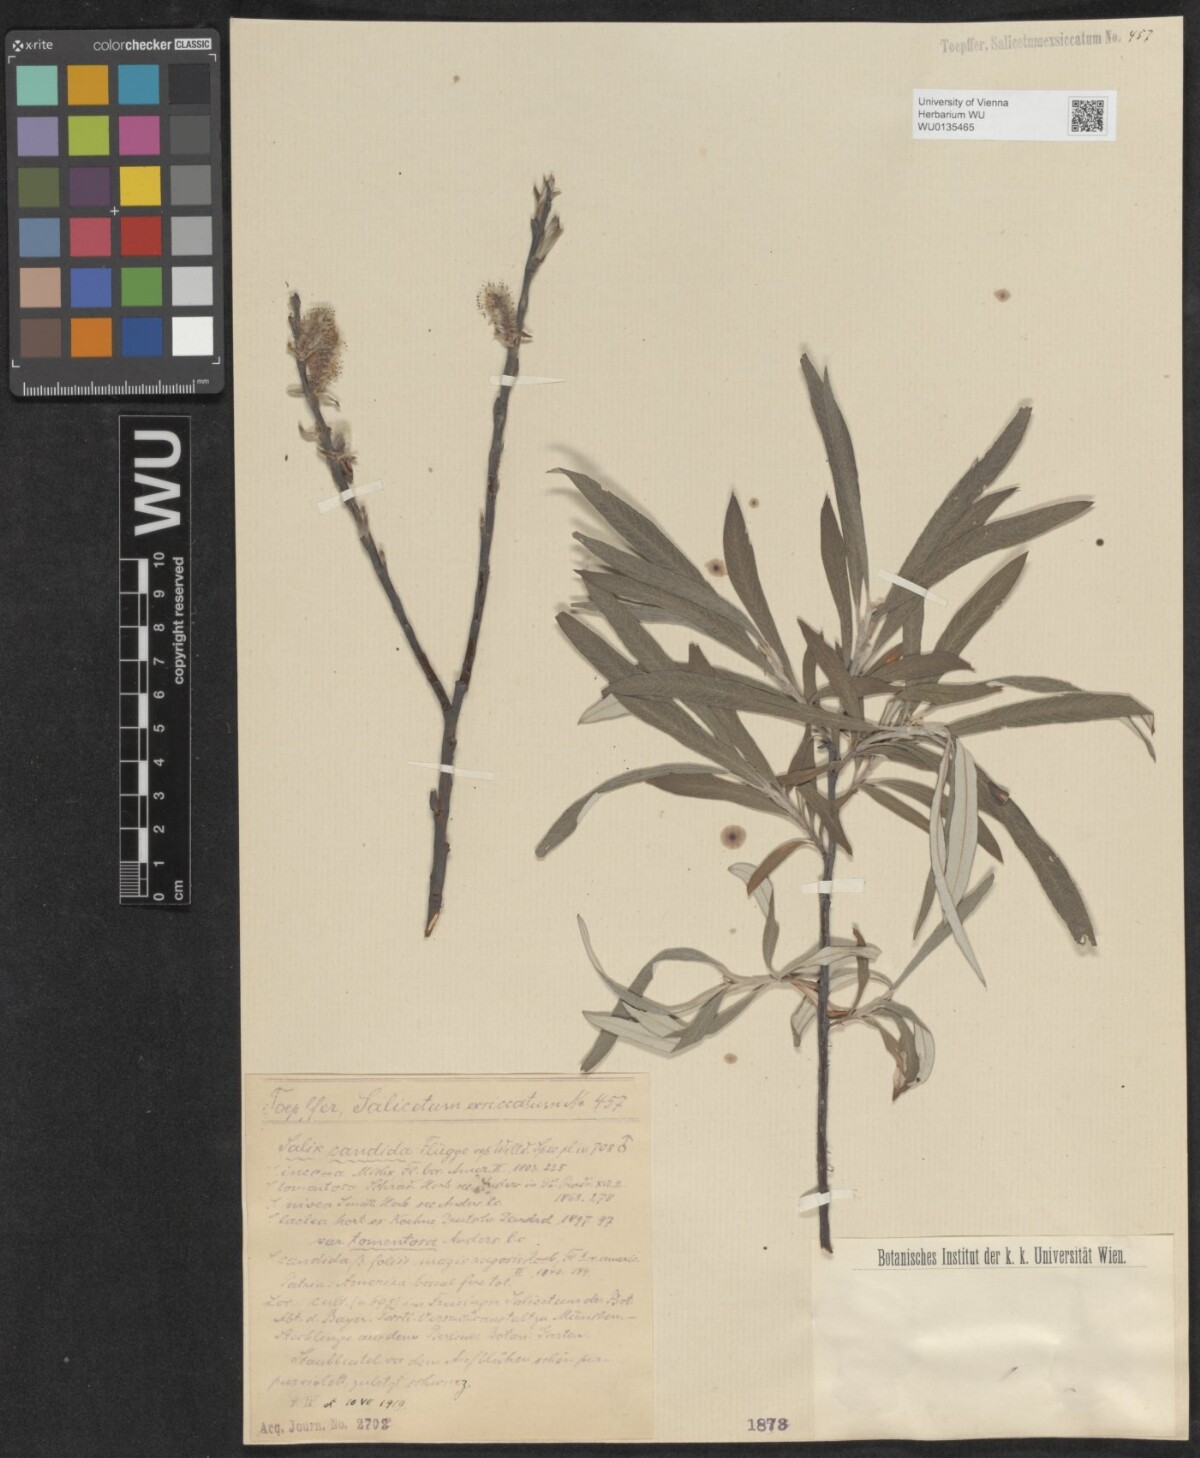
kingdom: Plantae
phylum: Tracheophyta
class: Magnoliopsida
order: Malpighiales
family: Salicaceae
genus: Salix
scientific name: Salix candida
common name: Hoary willow
